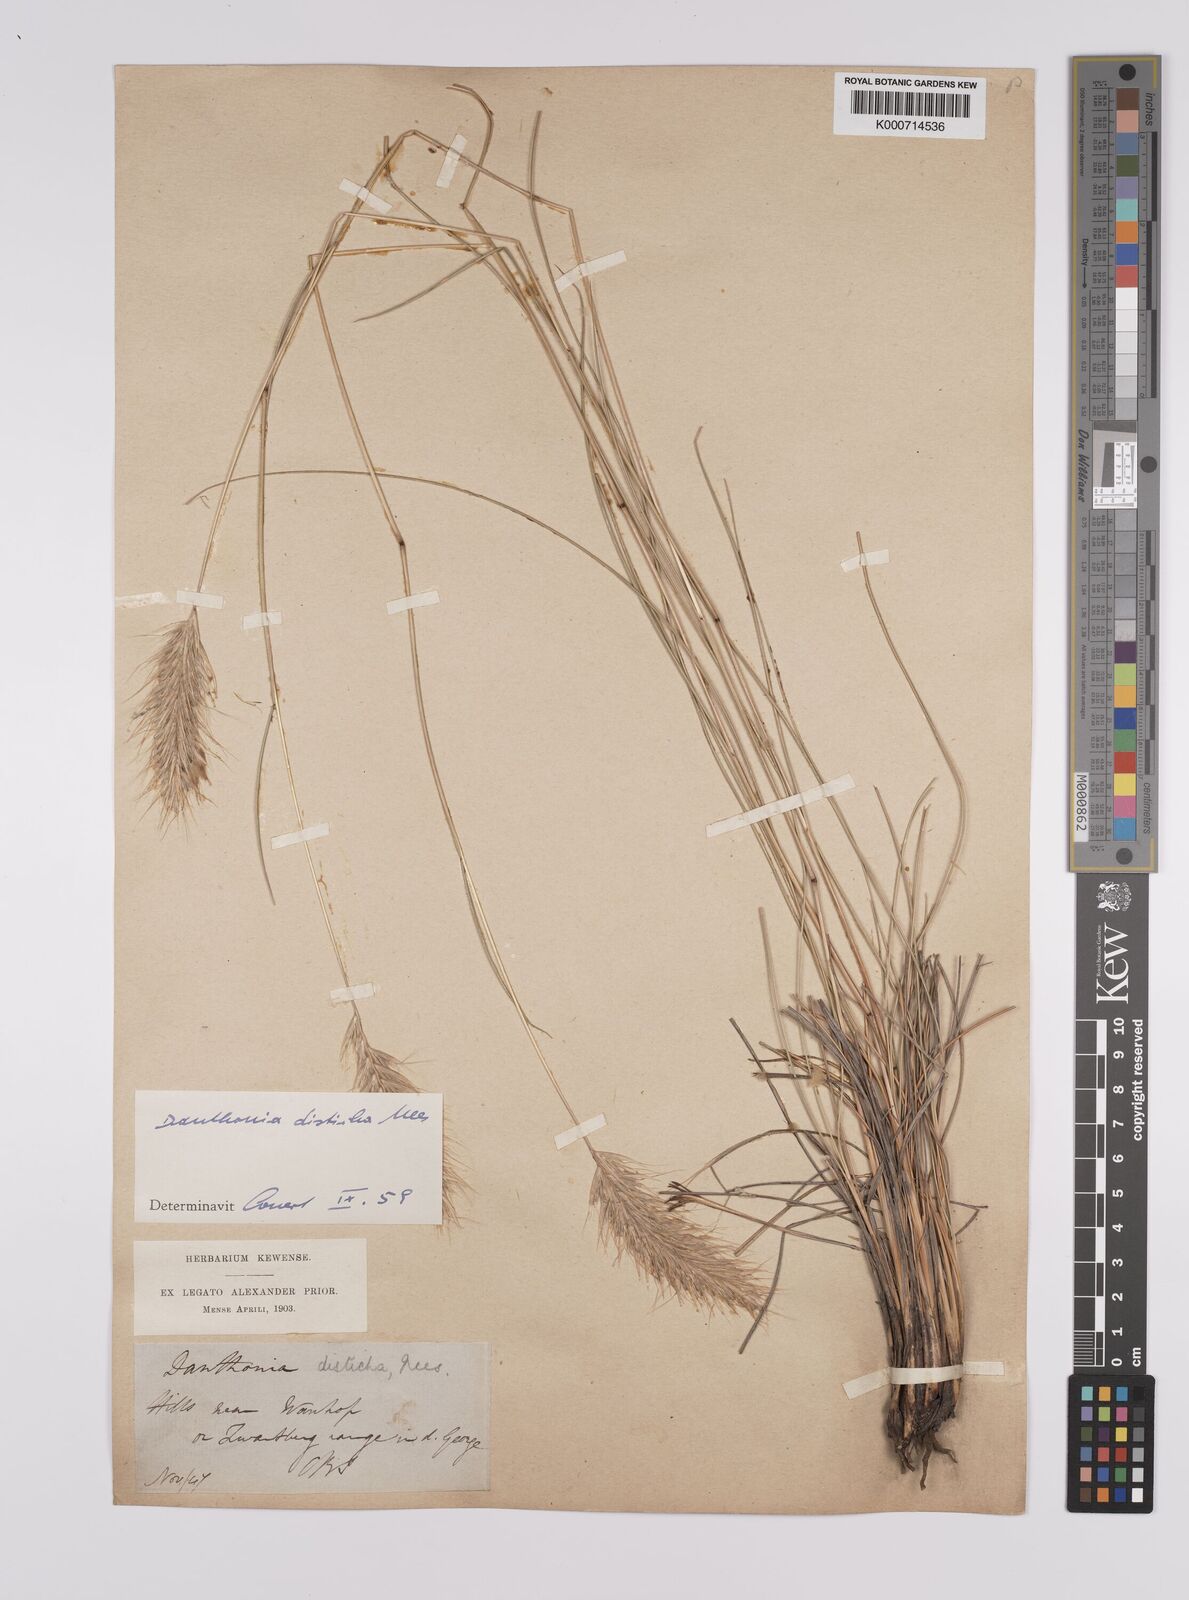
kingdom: Plantae
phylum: Tracheophyta
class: Liliopsida
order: Poales
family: Poaceae
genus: Tenaxia
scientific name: Tenaxia disticha
